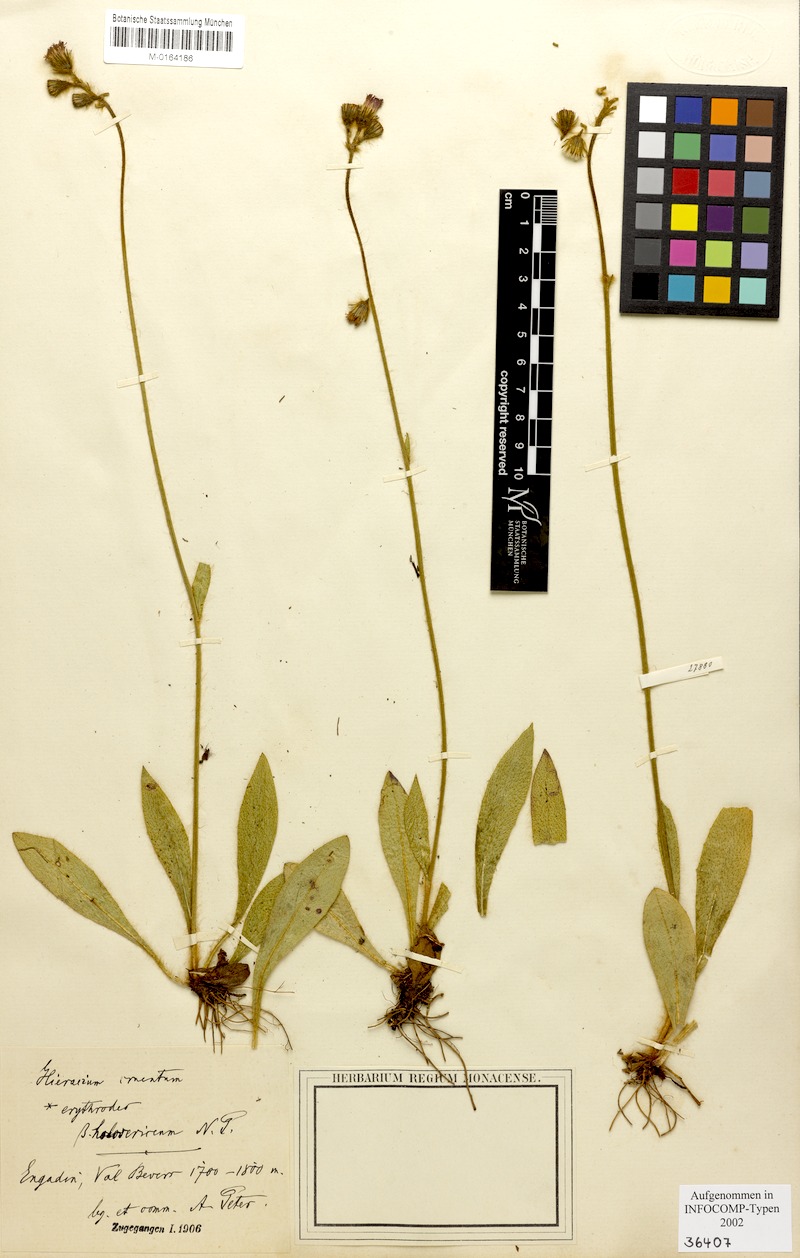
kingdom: Plantae
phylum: Tracheophyta
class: Magnoliopsida
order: Asterales
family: Asteraceae
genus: Pilosella
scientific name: Pilosella guthnikiana
